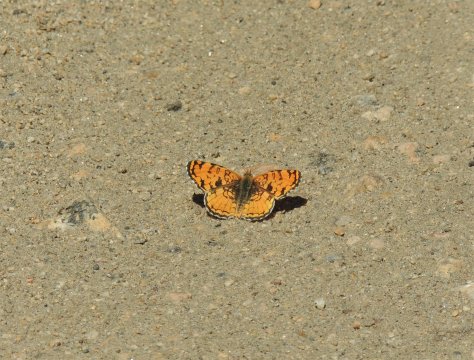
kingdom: Animalia
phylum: Arthropoda
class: Insecta
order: Lepidoptera
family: Nymphalidae
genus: Phyciodes
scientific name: Phyciodes pallida
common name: Pale Crescent
